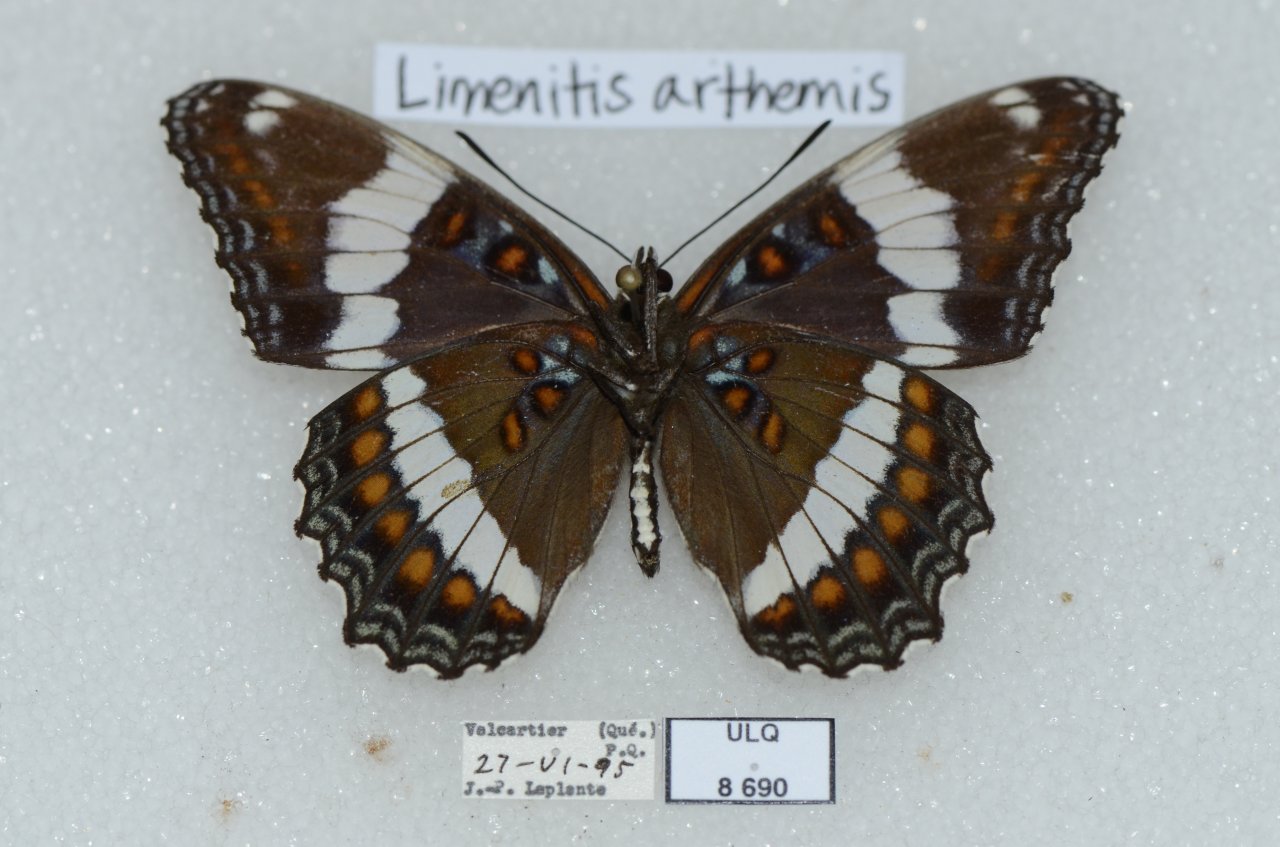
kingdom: Animalia
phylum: Arthropoda
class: Insecta
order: Lepidoptera
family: Nymphalidae
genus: Limenitis
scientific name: Limenitis arthemis
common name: Red-spotted Admiral
